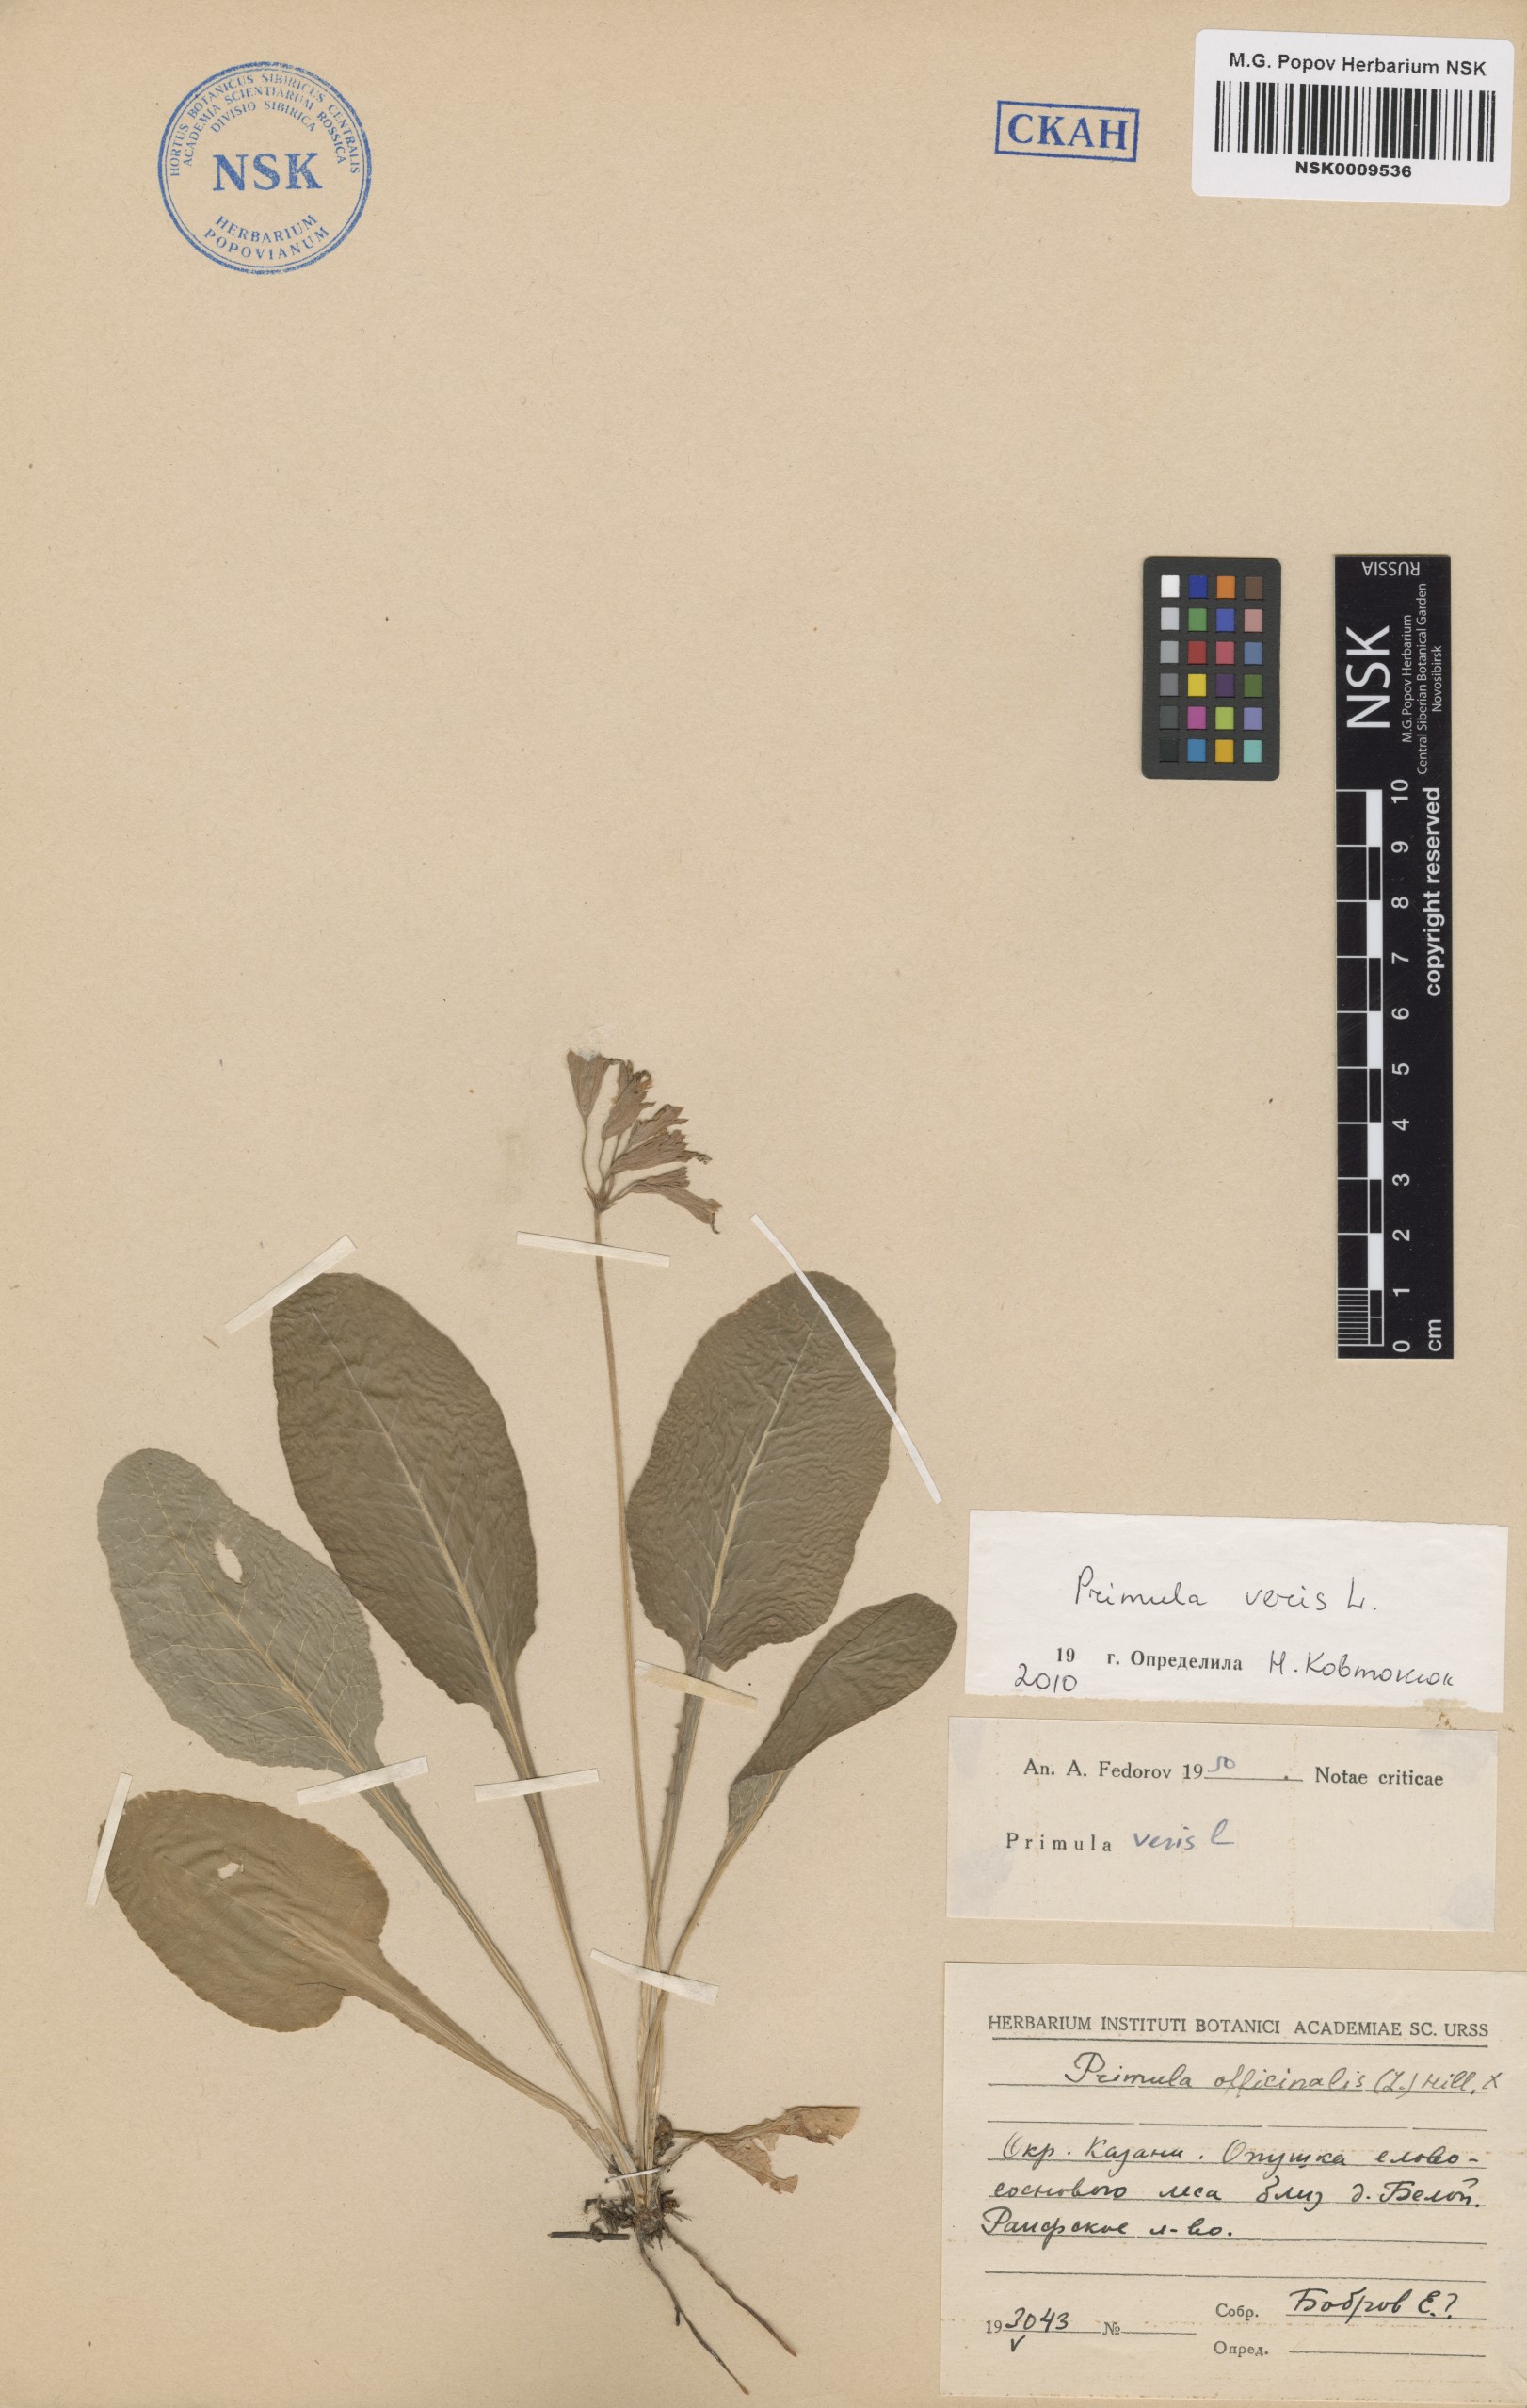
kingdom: Plantae
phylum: Tracheophyta
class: Magnoliopsida
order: Ericales
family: Primulaceae
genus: Primula
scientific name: Primula veris
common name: Cowslip
